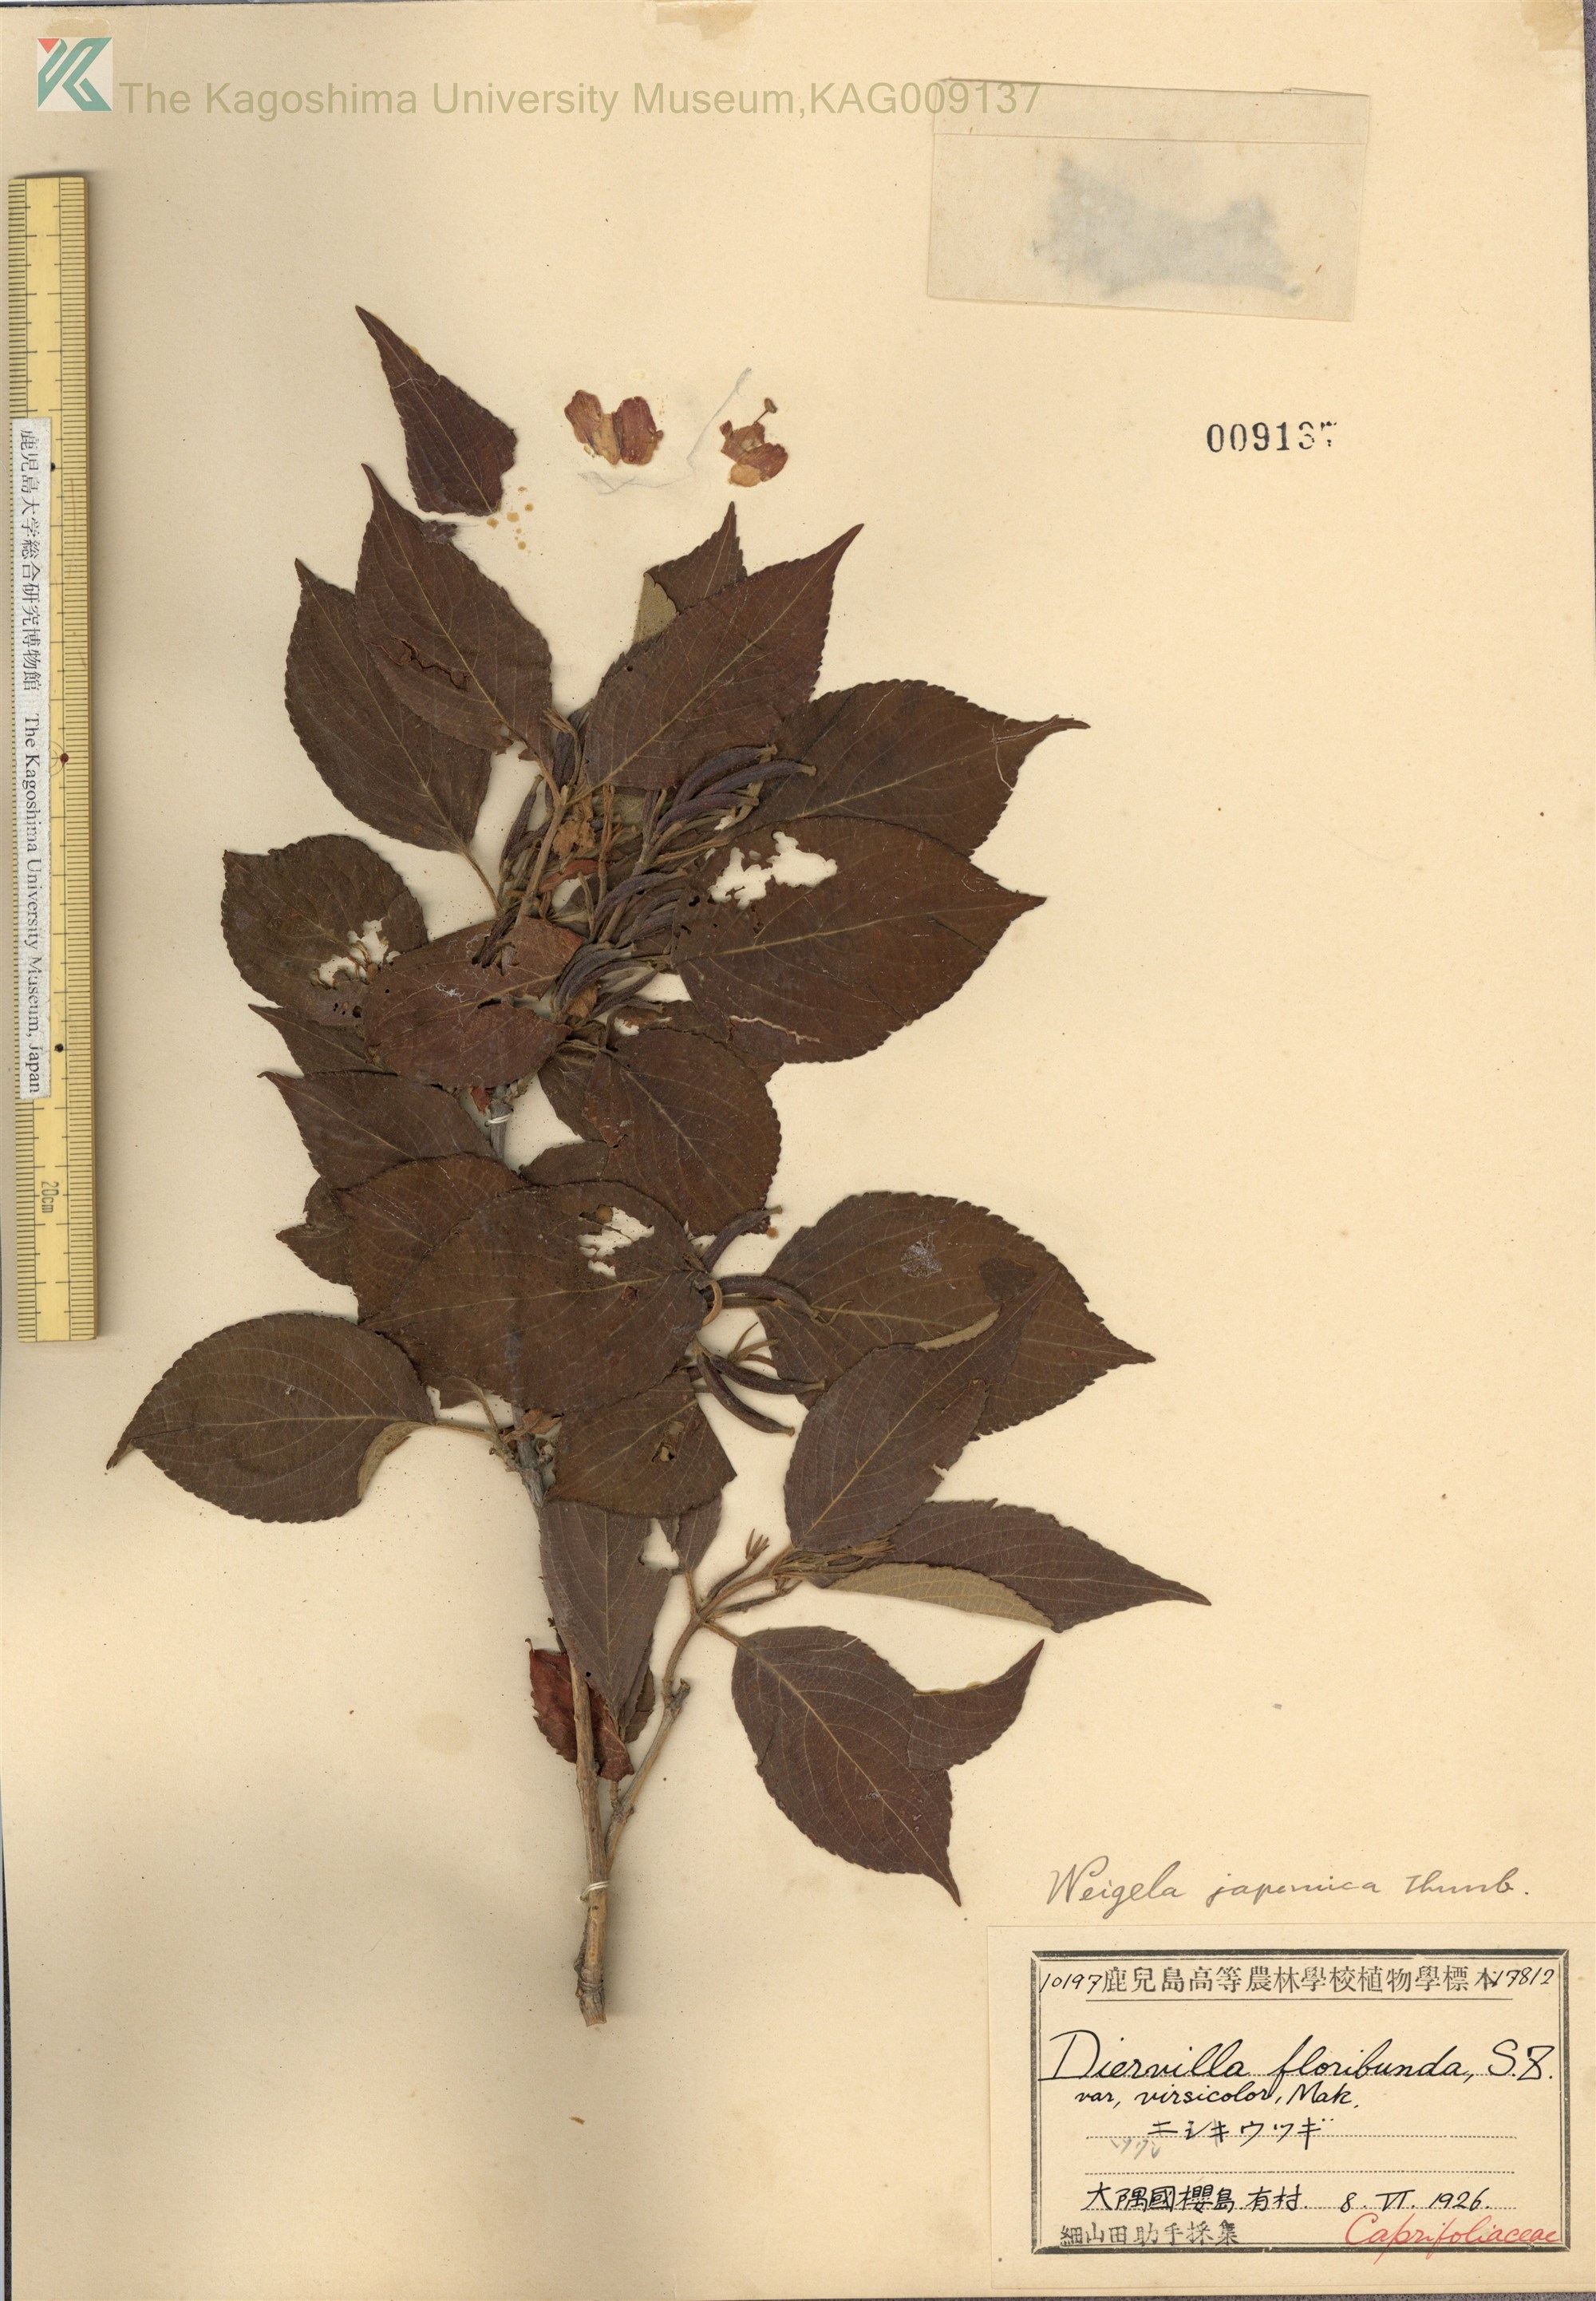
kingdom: Plantae
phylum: Tracheophyta
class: Magnoliopsida
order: Dipsacales
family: Caprifoliaceae
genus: Weigela
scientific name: Weigela japonica
